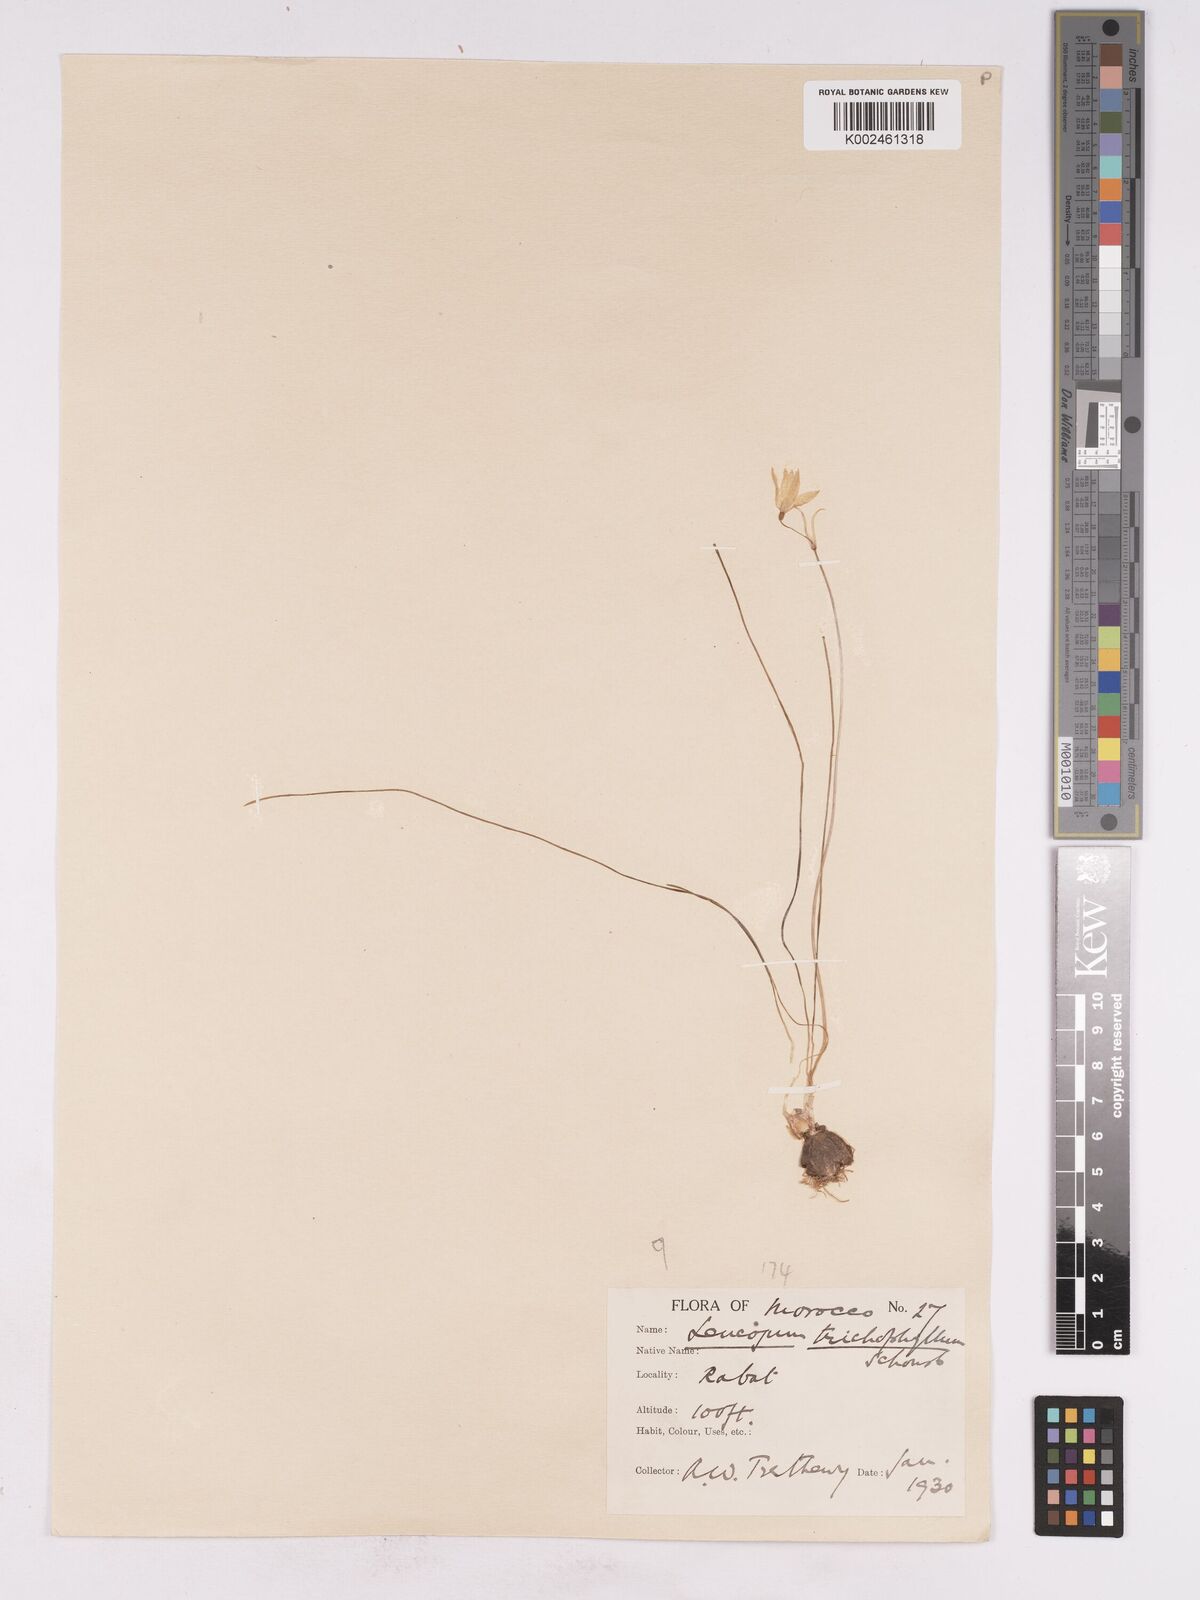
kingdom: Plantae
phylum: Tracheophyta
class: Liliopsida
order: Asparagales
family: Amaryllidaceae
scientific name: Amaryllidaceae
